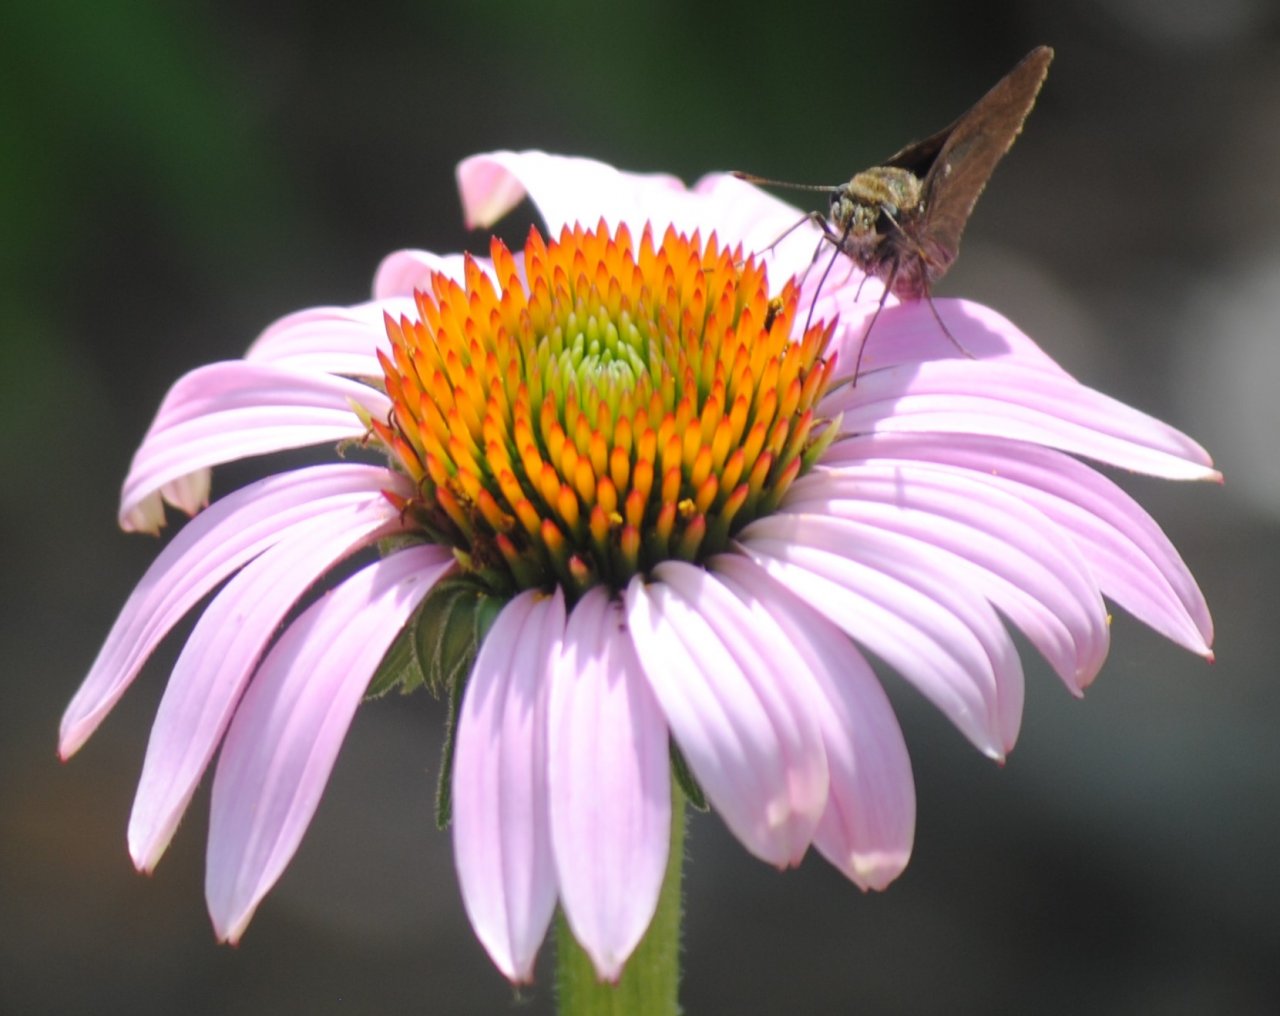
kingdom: Animalia
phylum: Arthropoda
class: Insecta
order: Lepidoptera
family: Hesperiidae
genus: Euphyes
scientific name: Euphyes vestris
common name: Dun Skipper
